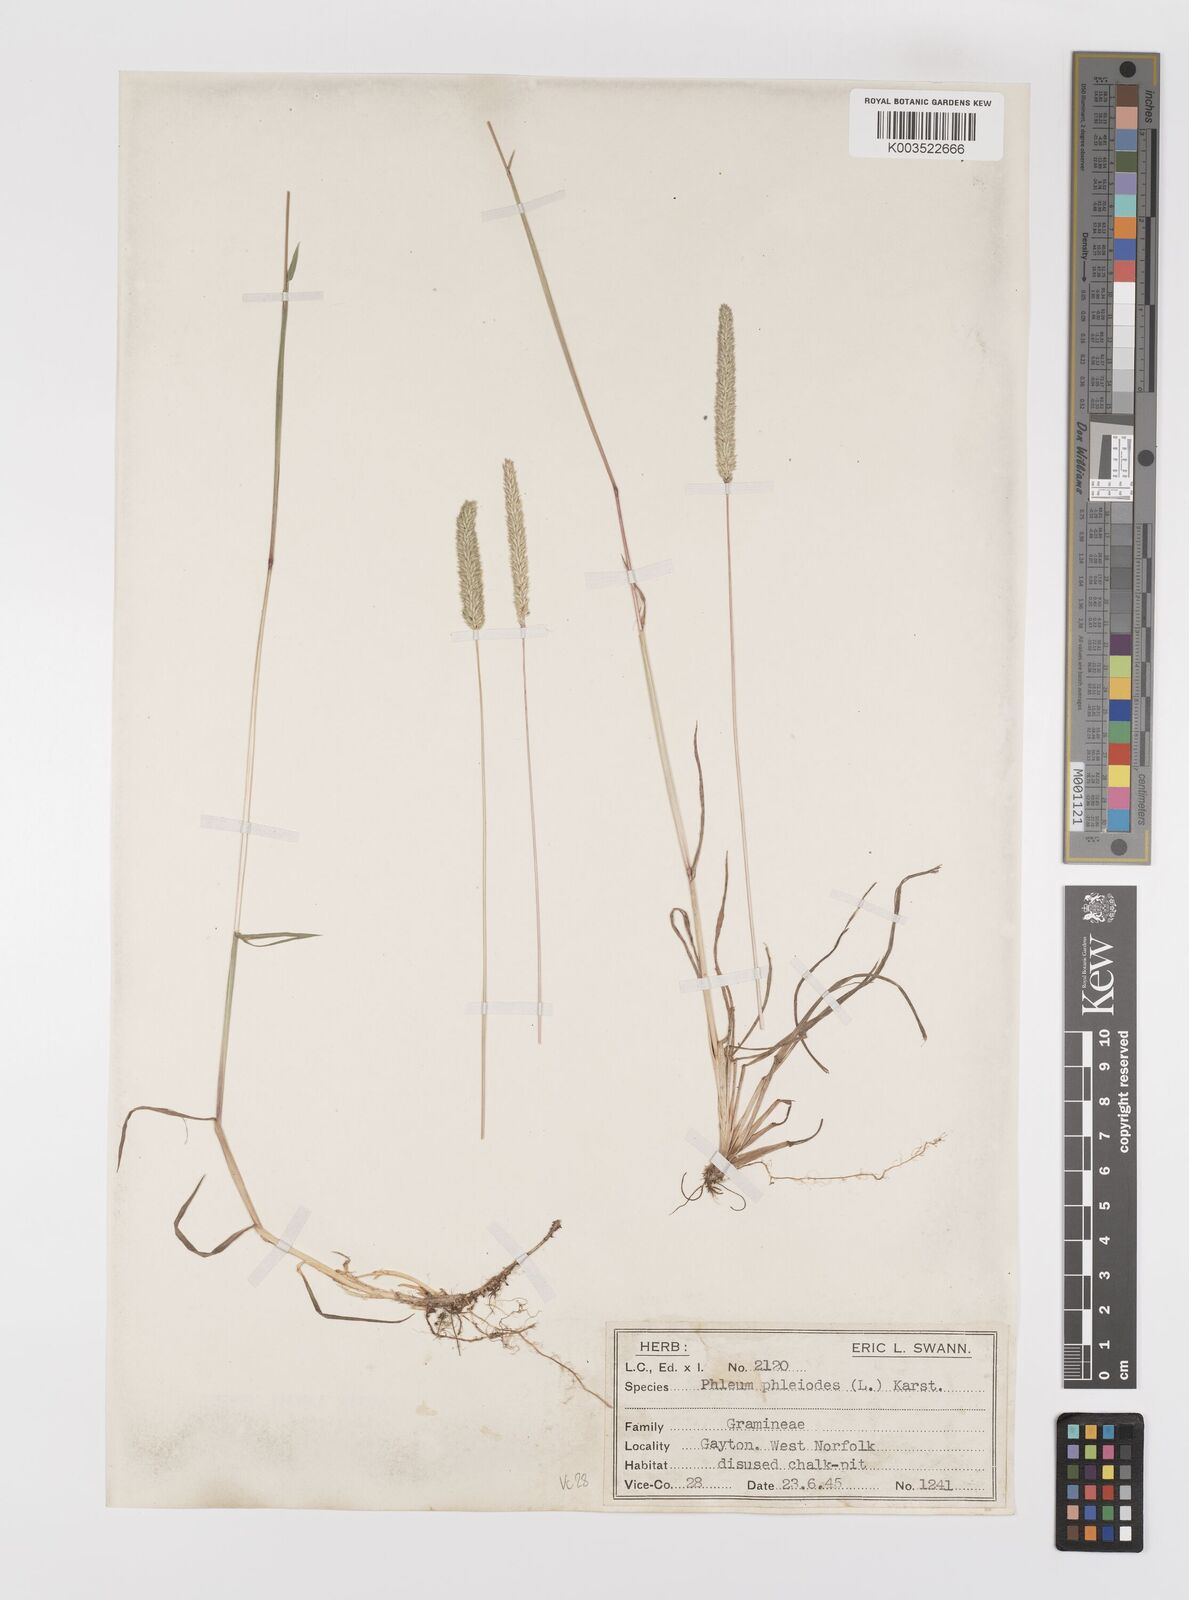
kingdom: Plantae
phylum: Tracheophyta
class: Liliopsida
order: Poales
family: Poaceae
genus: Phleum
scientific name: Phleum phleoides
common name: Purple-stem cat's-tail
